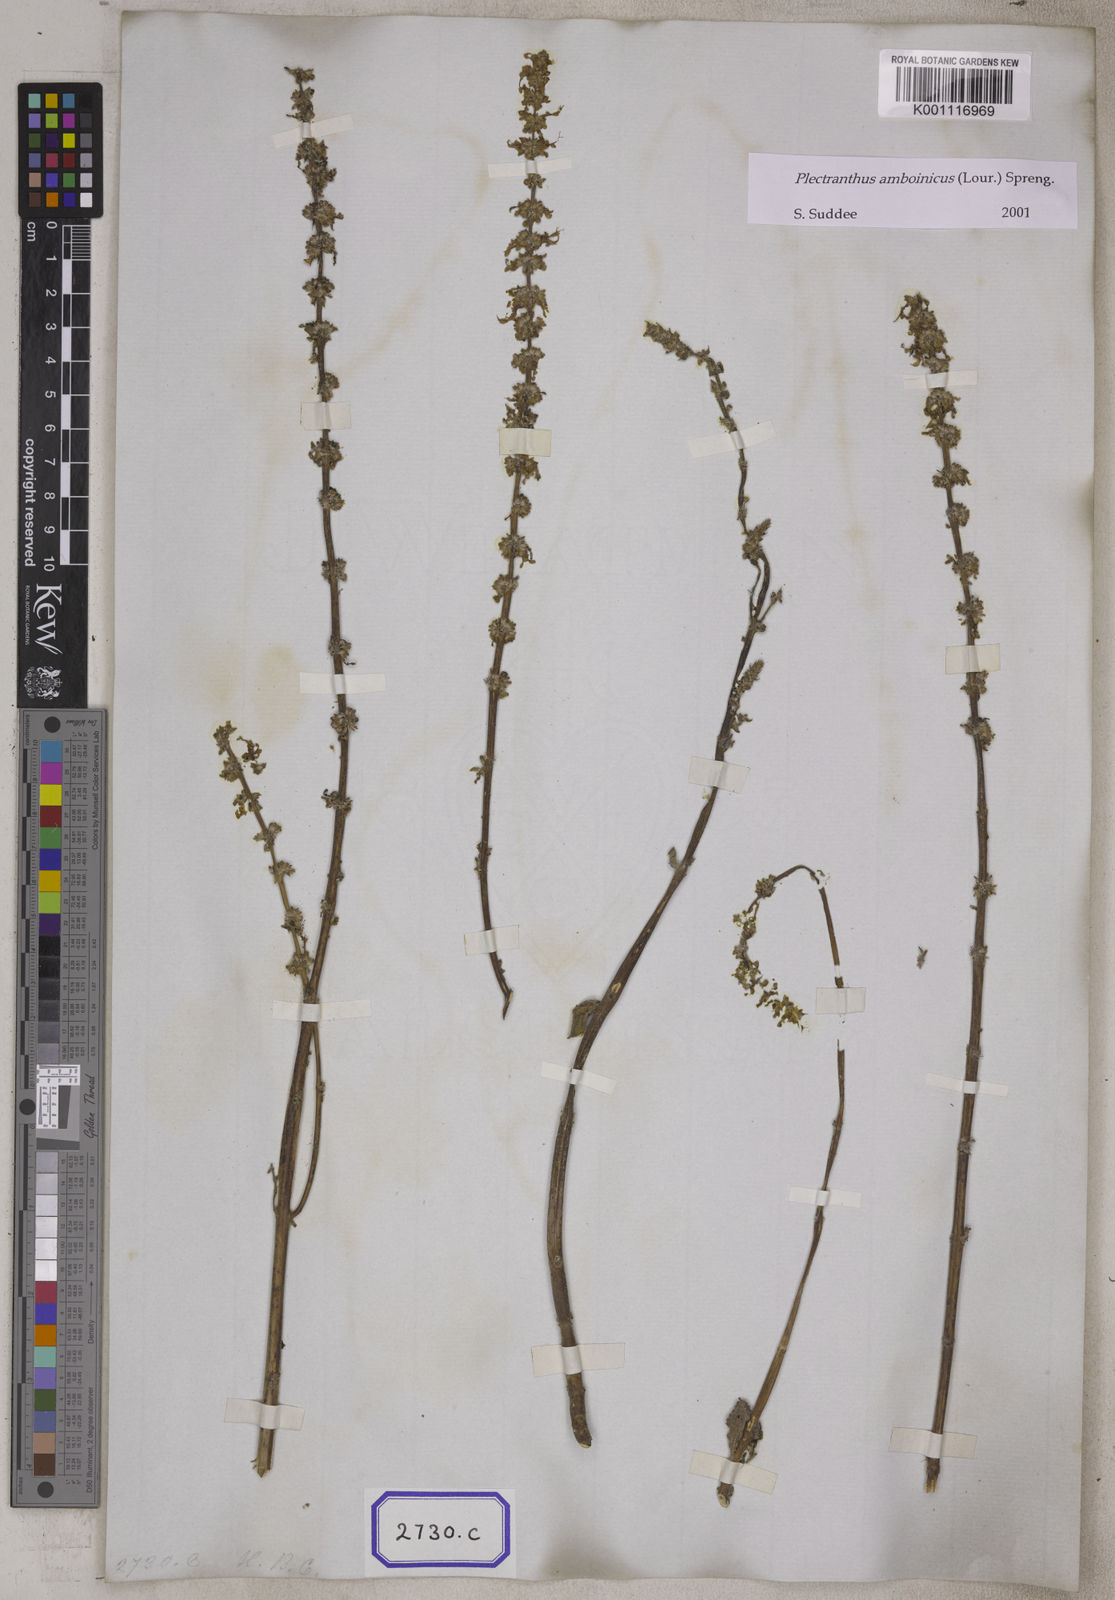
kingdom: Plantae
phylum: Tracheophyta
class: Magnoliopsida
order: Lamiales
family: Lamiaceae
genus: Coleus
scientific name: Coleus amboinicus
